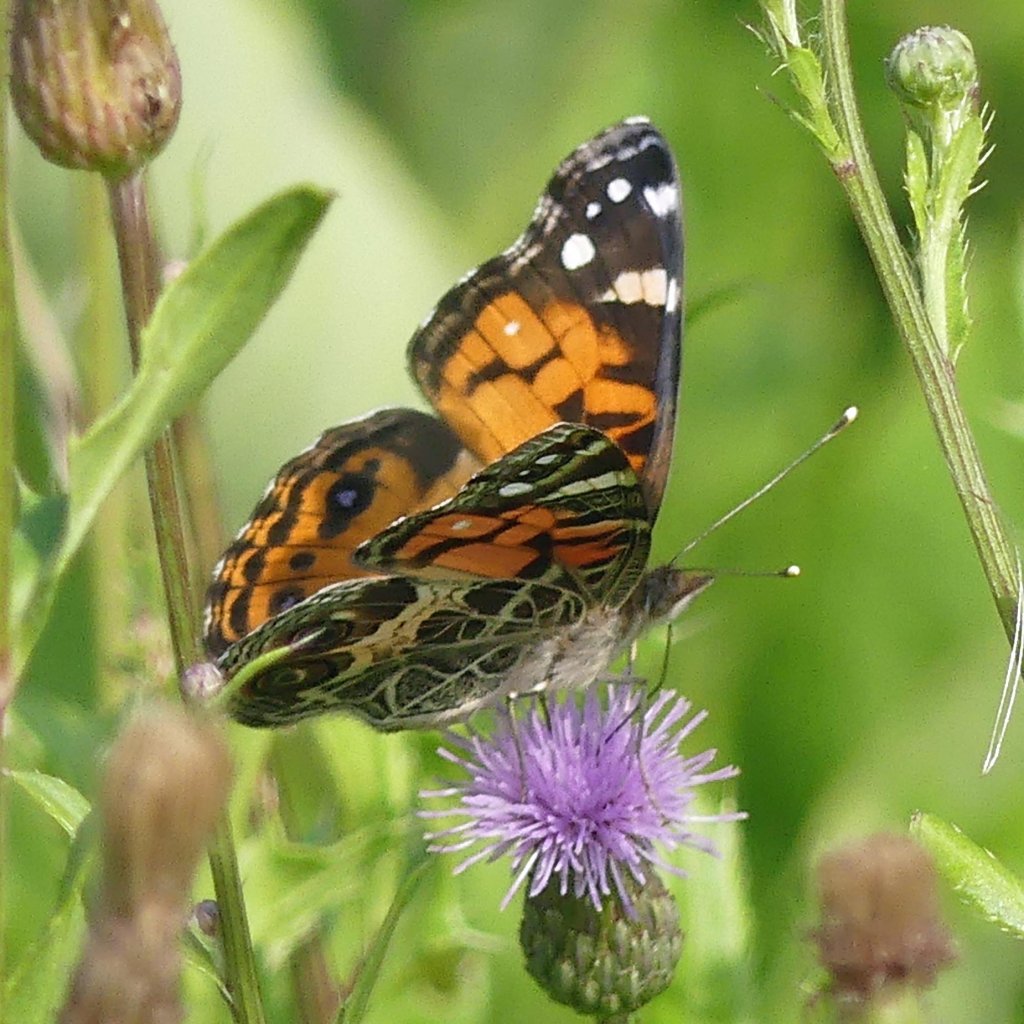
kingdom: Animalia
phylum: Arthropoda
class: Insecta
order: Lepidoptera
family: Nymphalidae
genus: Vanessa
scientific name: Vanessa virginiensis
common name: American Lady
